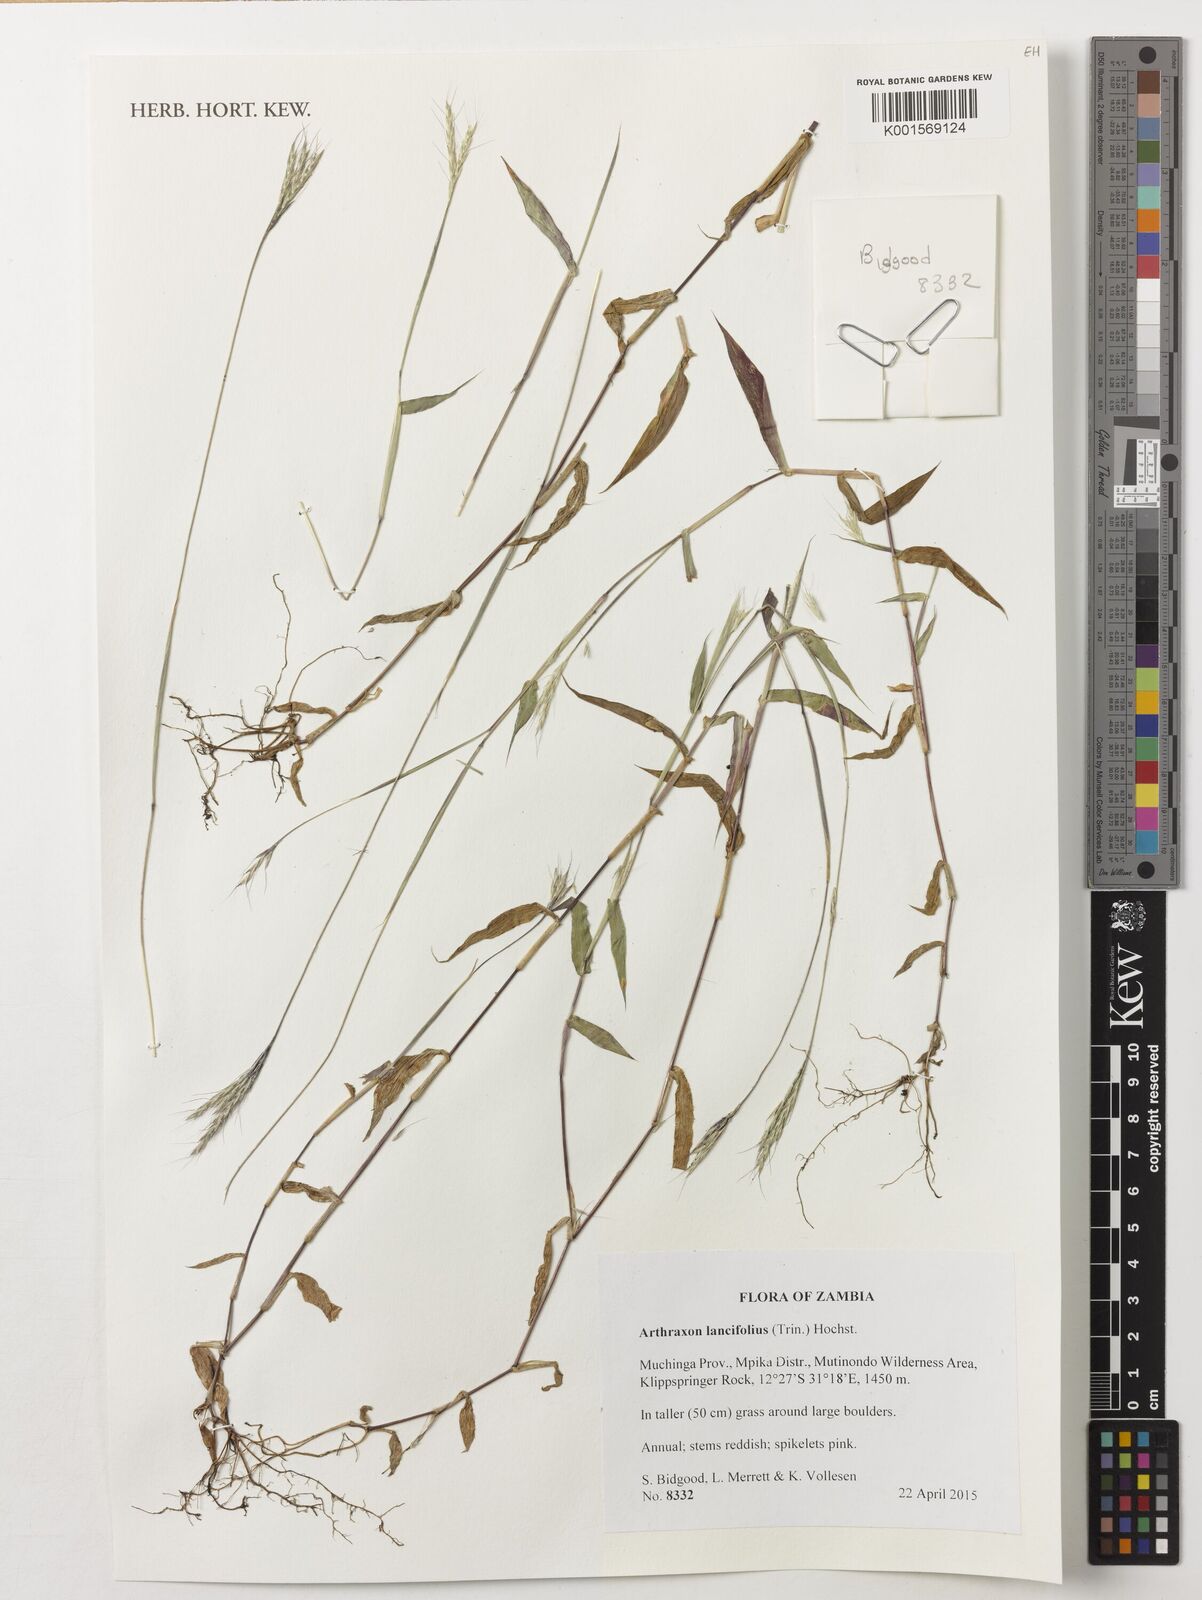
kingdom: Plantae
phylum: Tracheophyta
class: Liliopsida
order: Poales
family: Poaceae
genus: Arthraxon
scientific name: Arthraxon lancifolius
